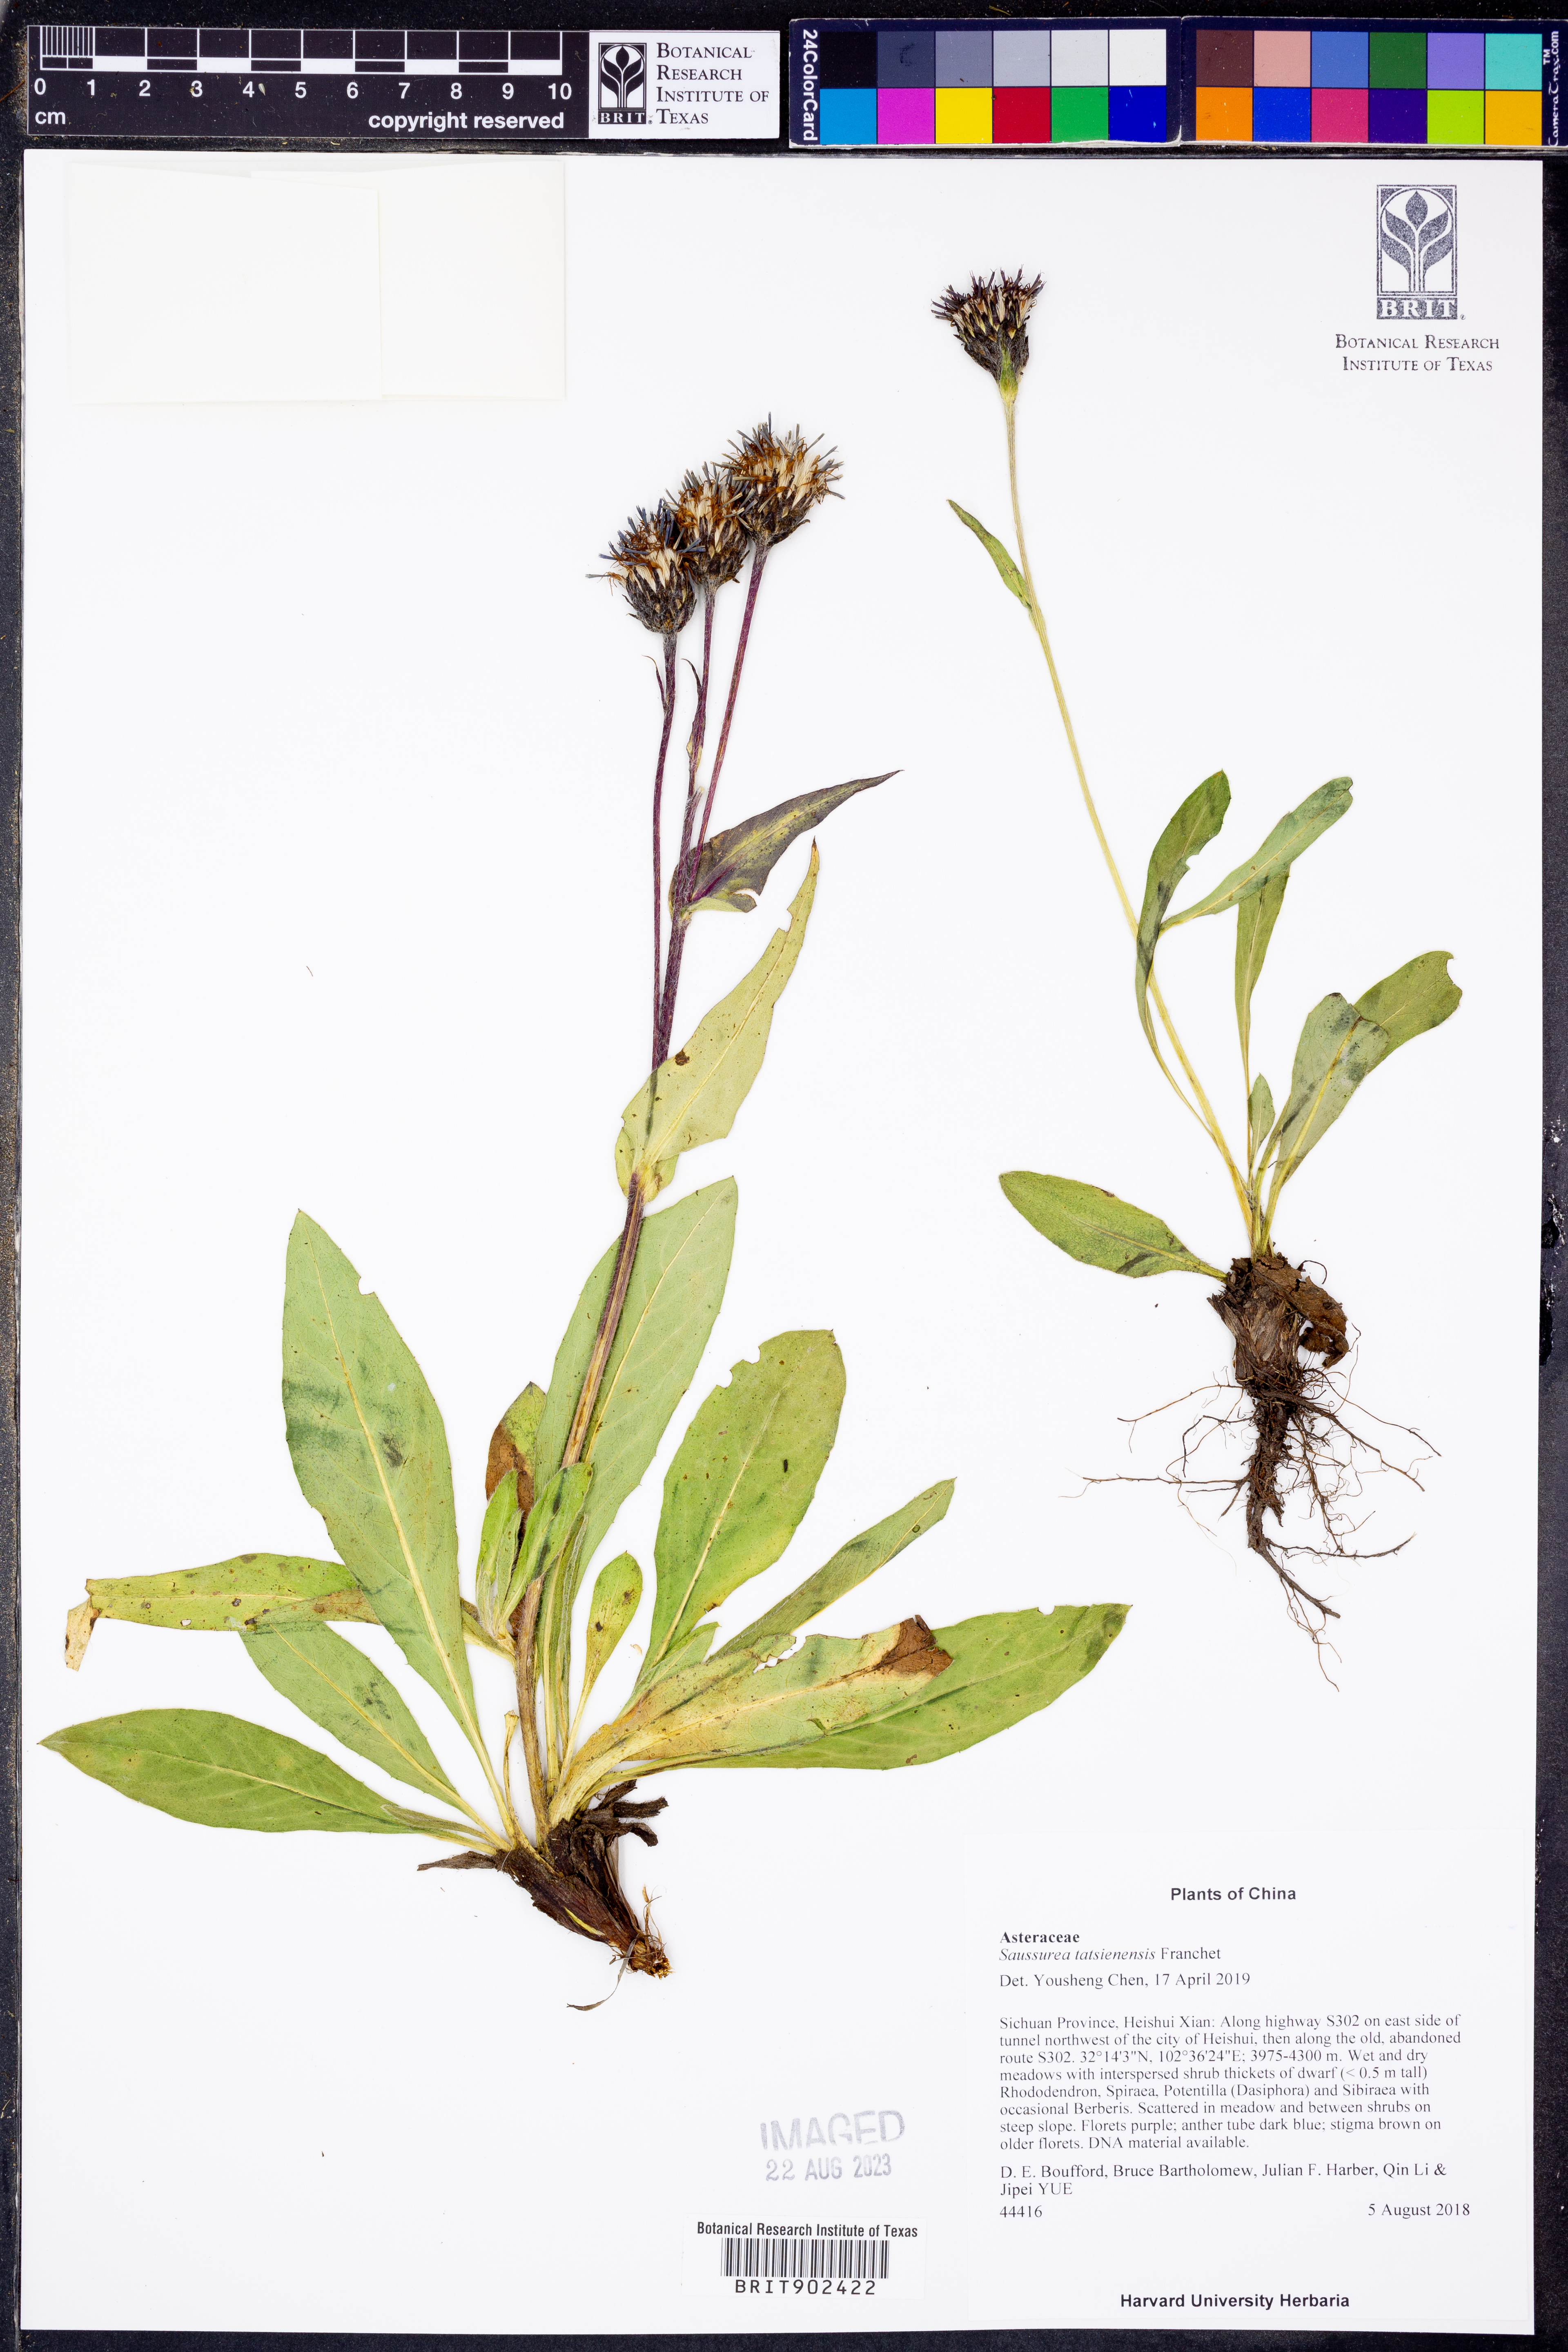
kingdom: Plantae
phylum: Tracheophyta
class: Magnoliopsida
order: Asterales
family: Asteraceae
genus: Saussurea
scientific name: Saussurea
